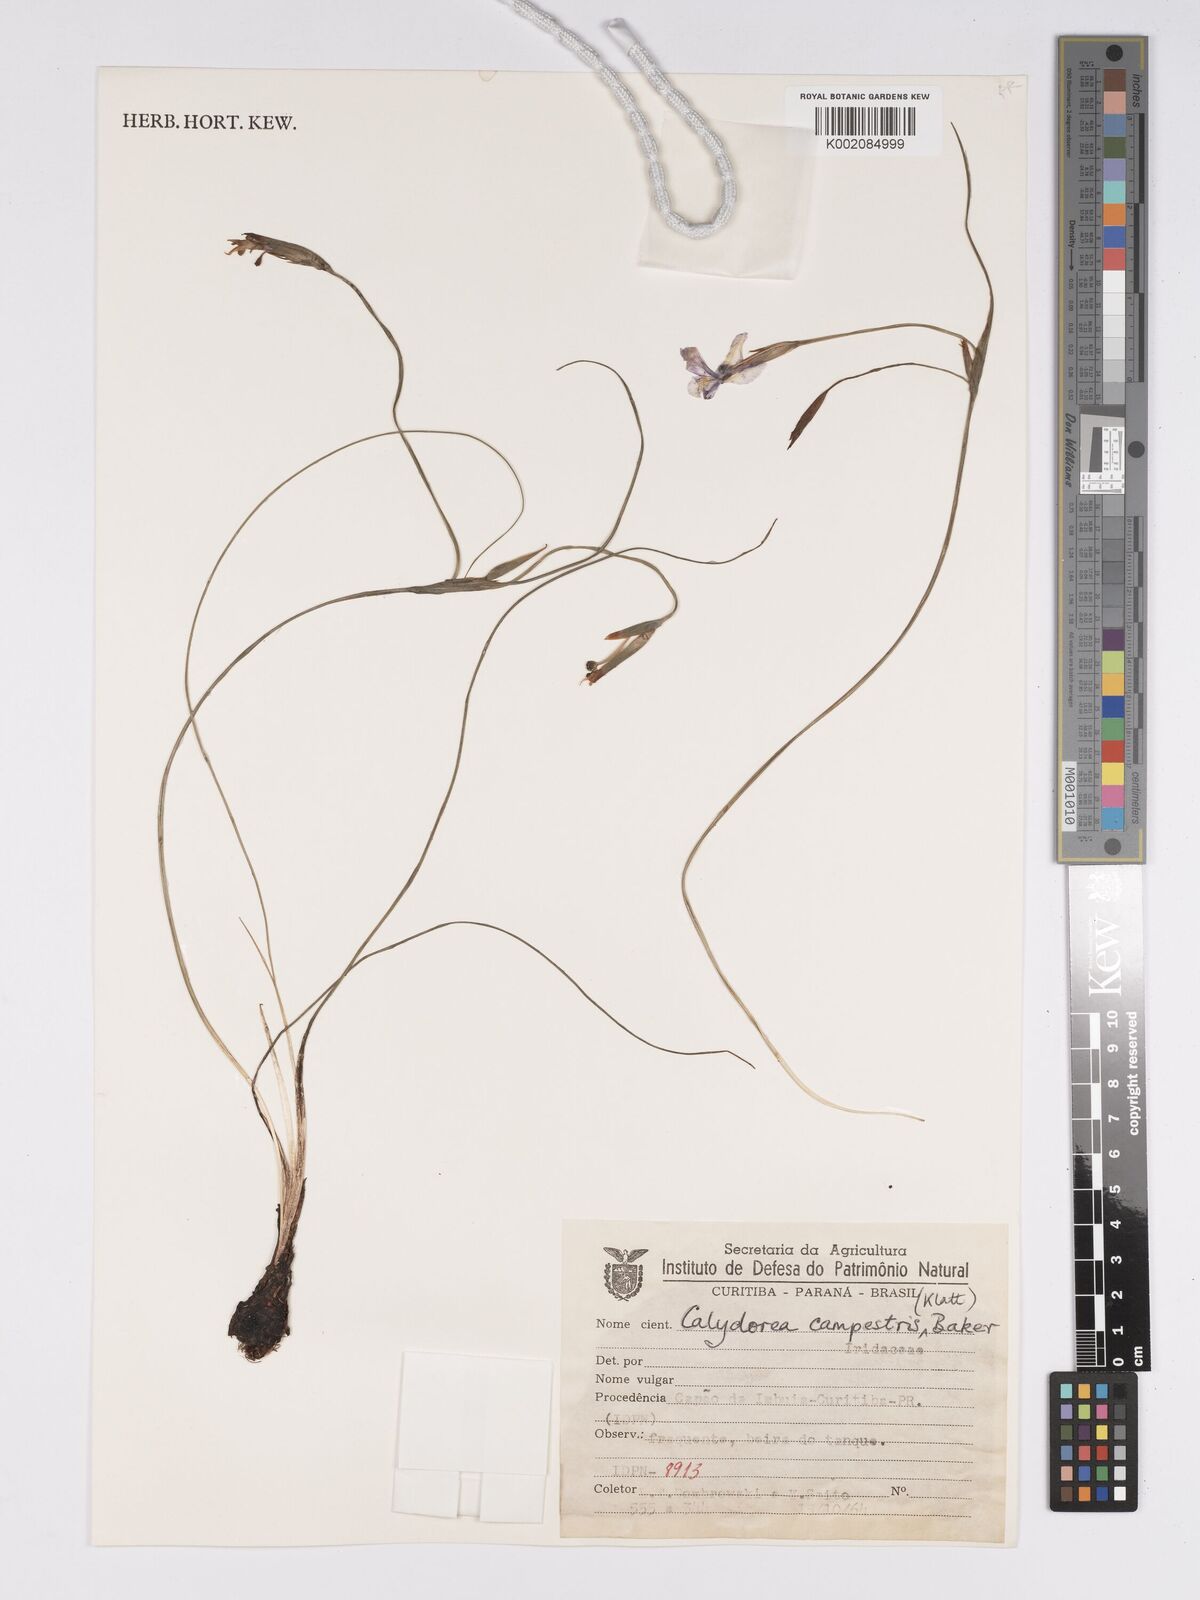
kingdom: Plantae
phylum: Tracheophyta
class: Liliopsida
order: Asparagales
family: Iridaceae
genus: Calydorea
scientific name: Calydorea campestris
